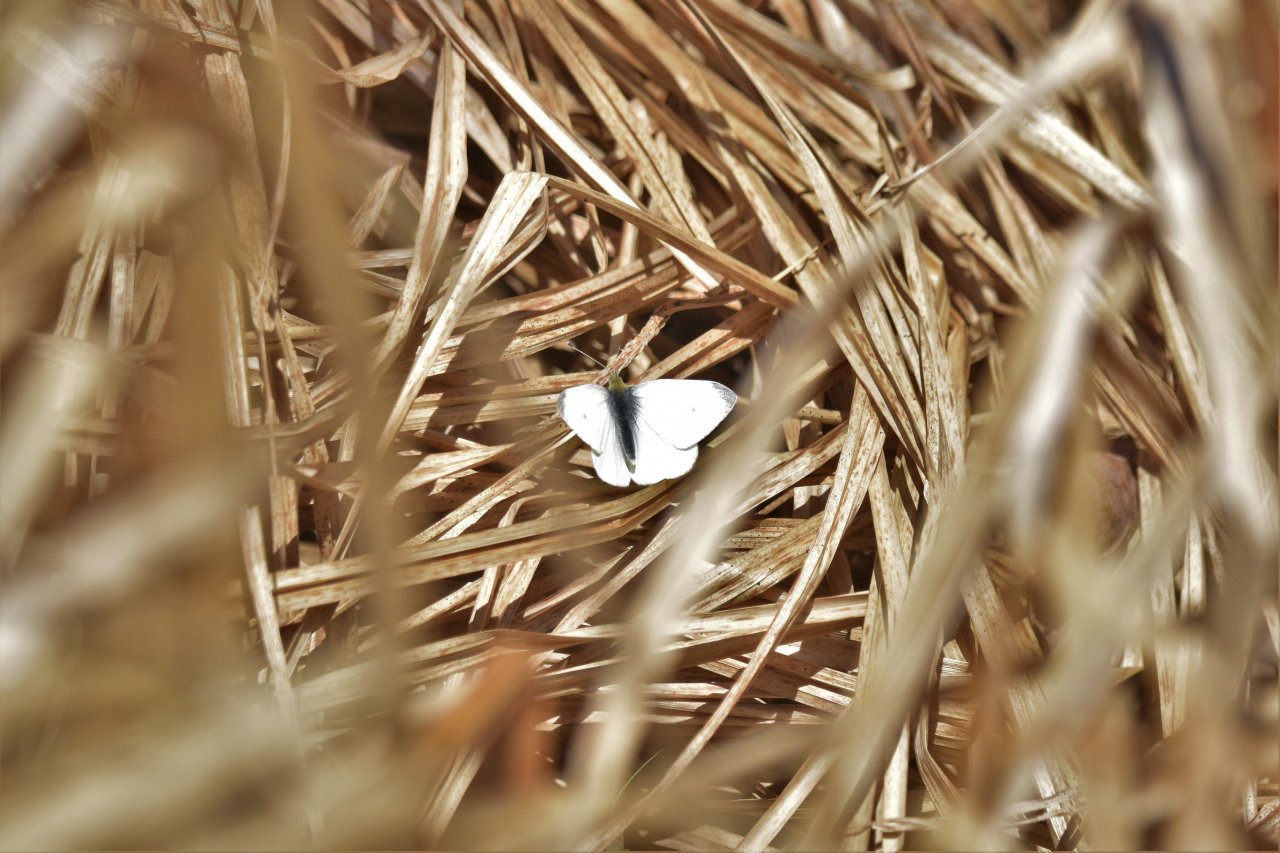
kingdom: Animalia
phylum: Arthropoda
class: Insecta
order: Lepidoptera
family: Pieridae
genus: Pieris
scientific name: Pieris rapae
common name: Cabbage White
